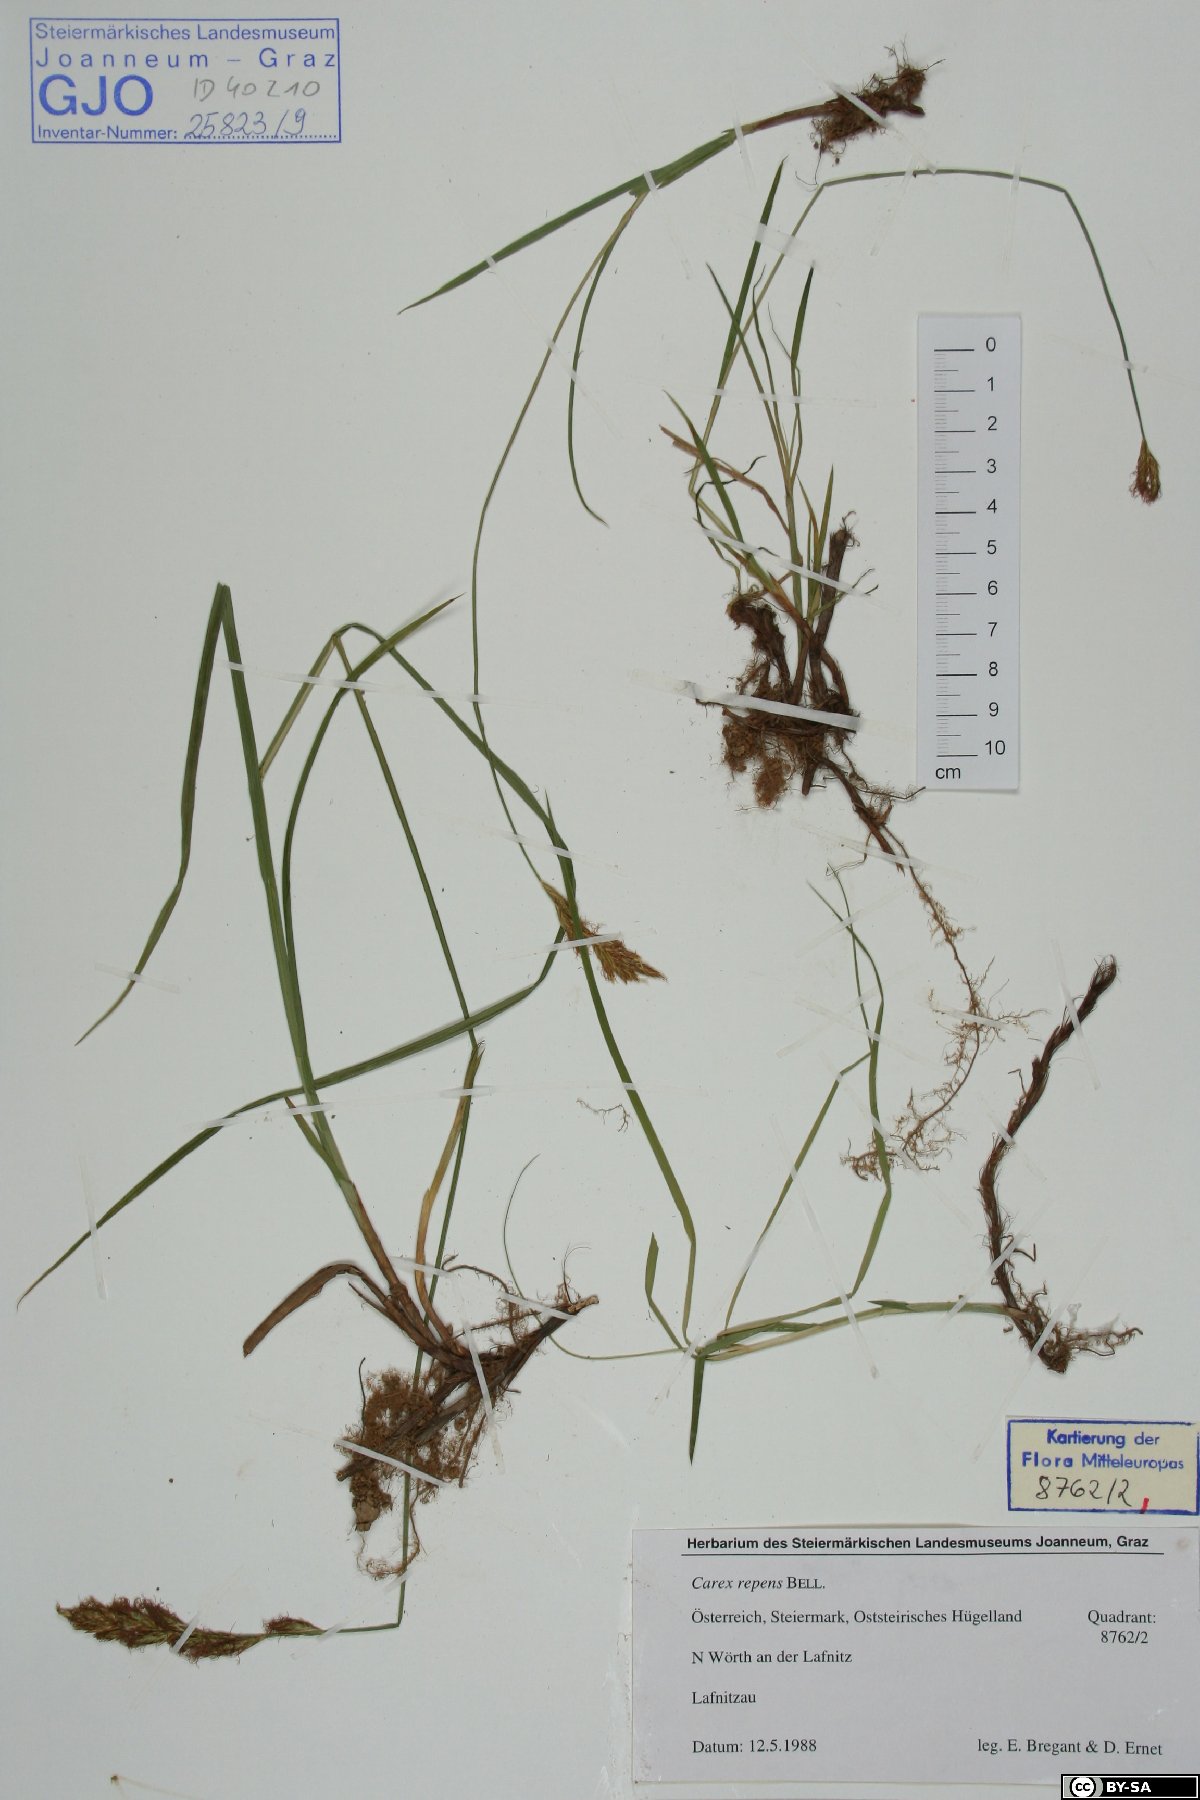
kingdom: Plantae
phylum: Tracheophyta
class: Liliopsida
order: Poales
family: Cyperaceae
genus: Carex
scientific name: Carex repens
